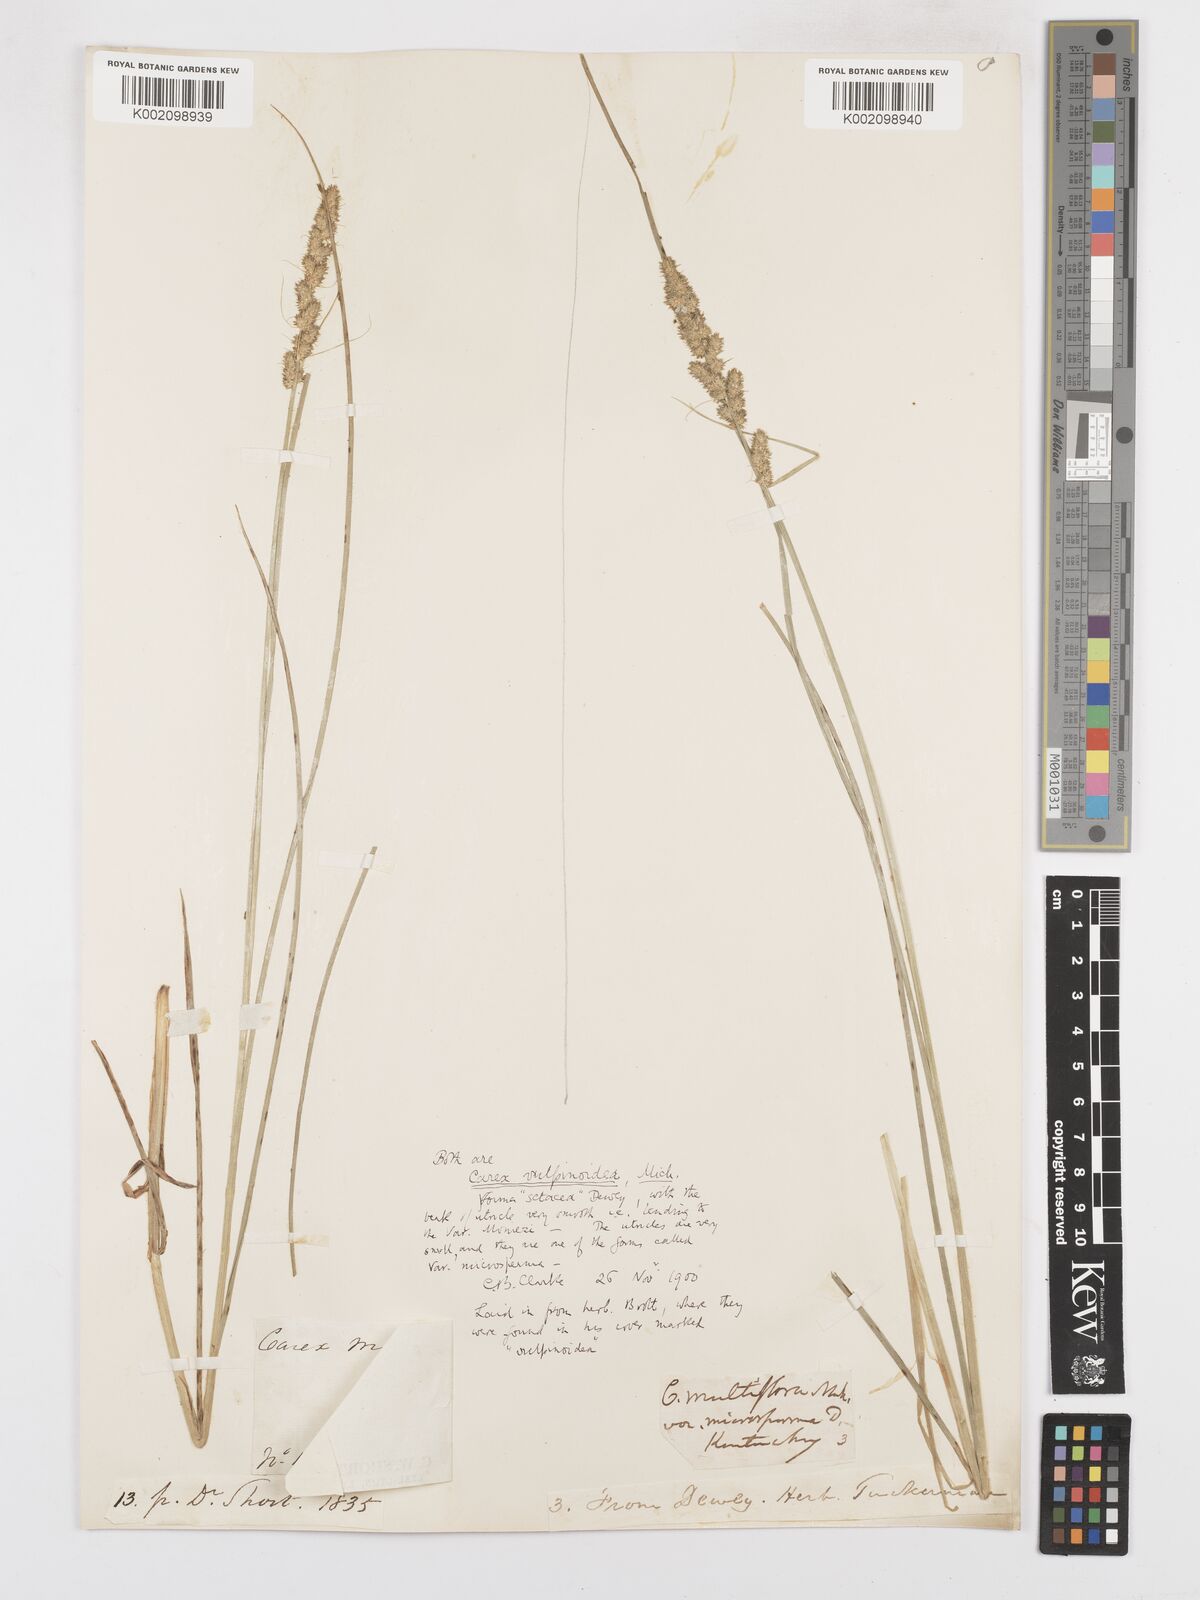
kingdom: Plantae
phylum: Tracheophyta
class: Liliopsida
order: Poales
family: Cyperaceae
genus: Carex
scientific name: Carex vulpinoidea
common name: American fox-sedge
